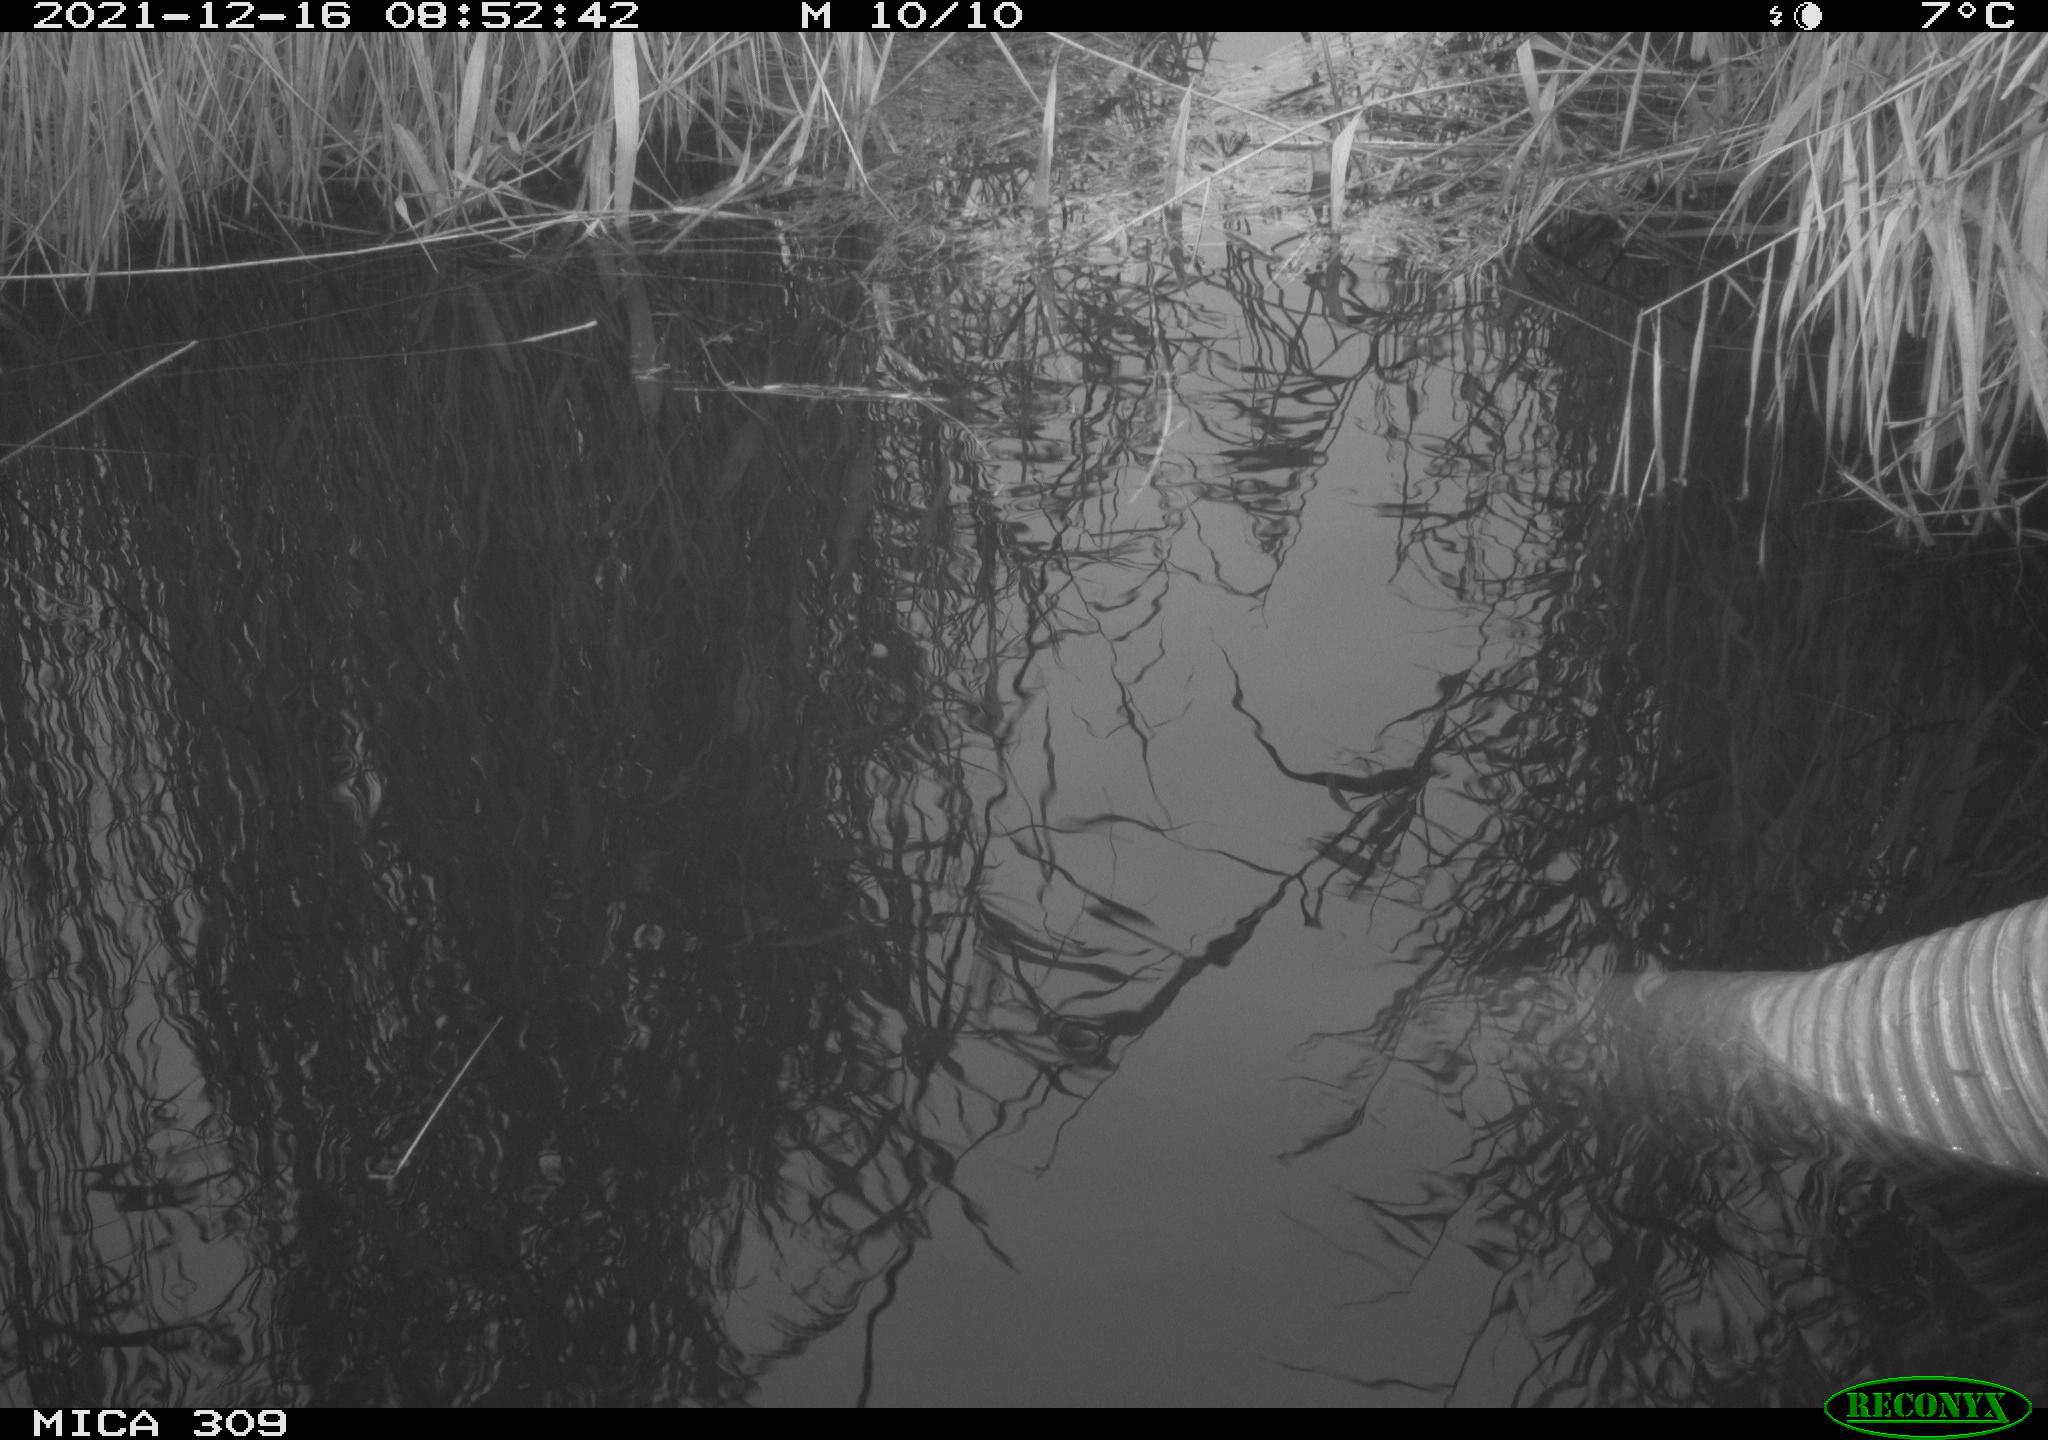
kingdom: Animalia
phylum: Chordata
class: Aves
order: Gruiformes
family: Rallidae
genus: Gallinula
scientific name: Gallinula chloropus
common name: Common moorhen
